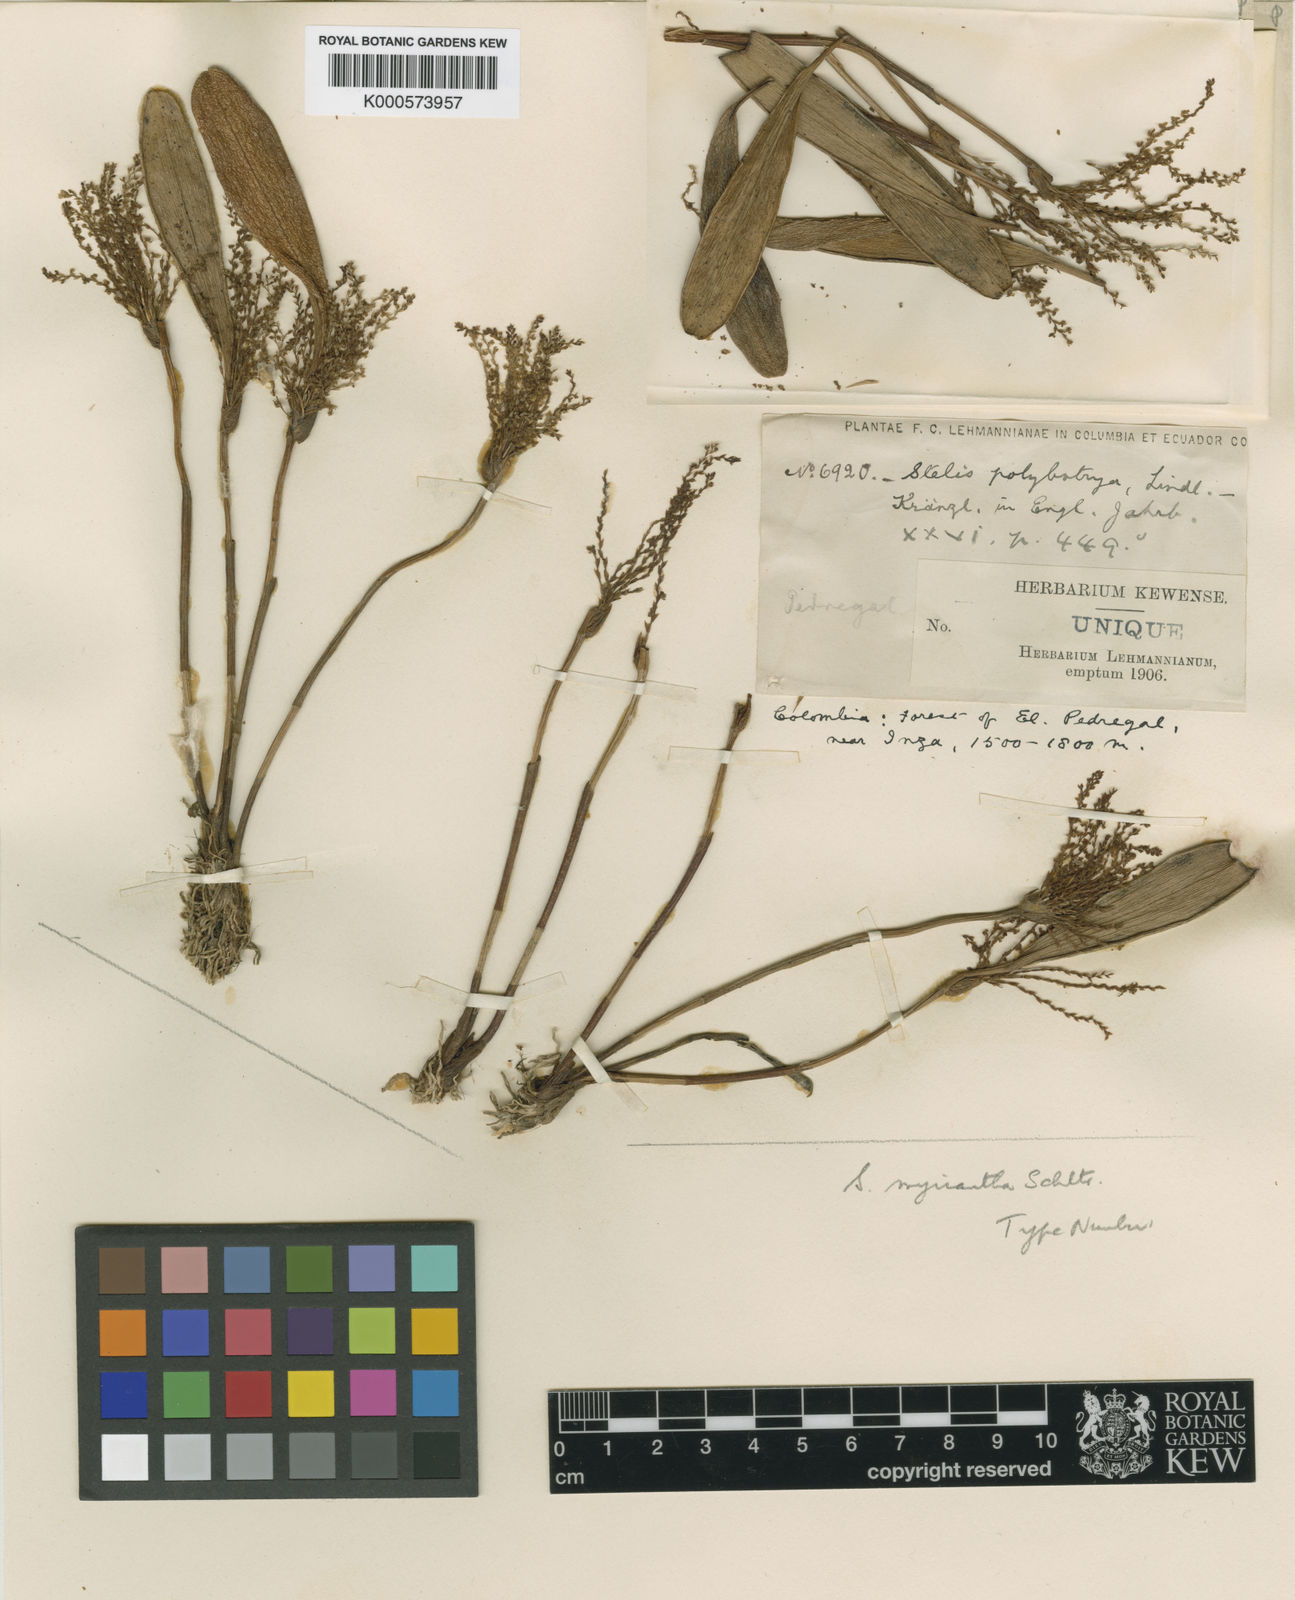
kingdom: Plantae
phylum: Tracheophyta
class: Liliopsida
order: Asparagales
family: Orchidaceae
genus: Stelis
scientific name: Stelis tenuilabris
